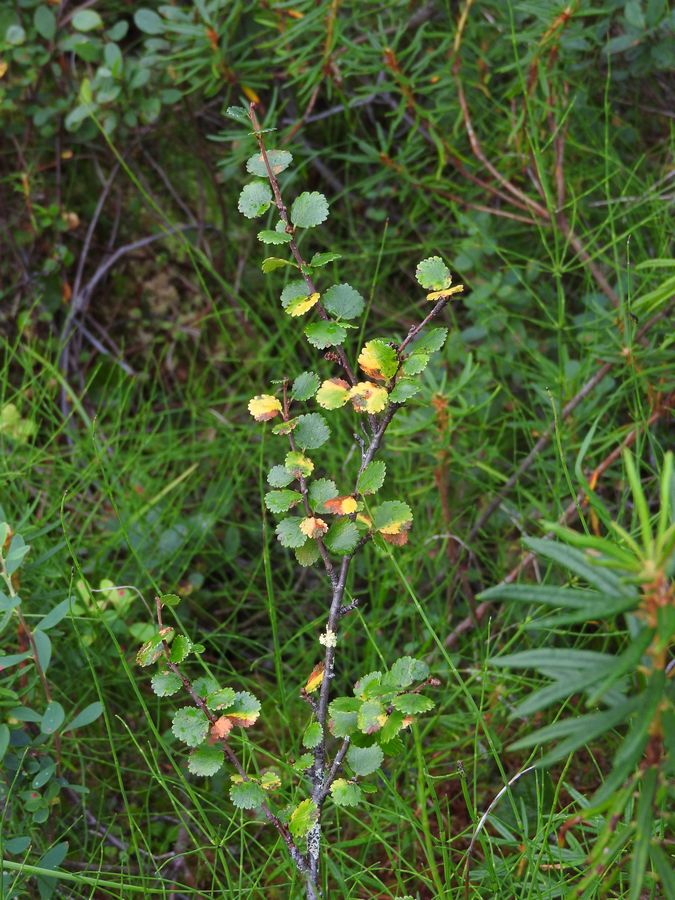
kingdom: Plantae
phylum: Tracheophyta
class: Magnoliopsida
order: Fagales
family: Betulaceae
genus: Betula
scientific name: Betula nana
